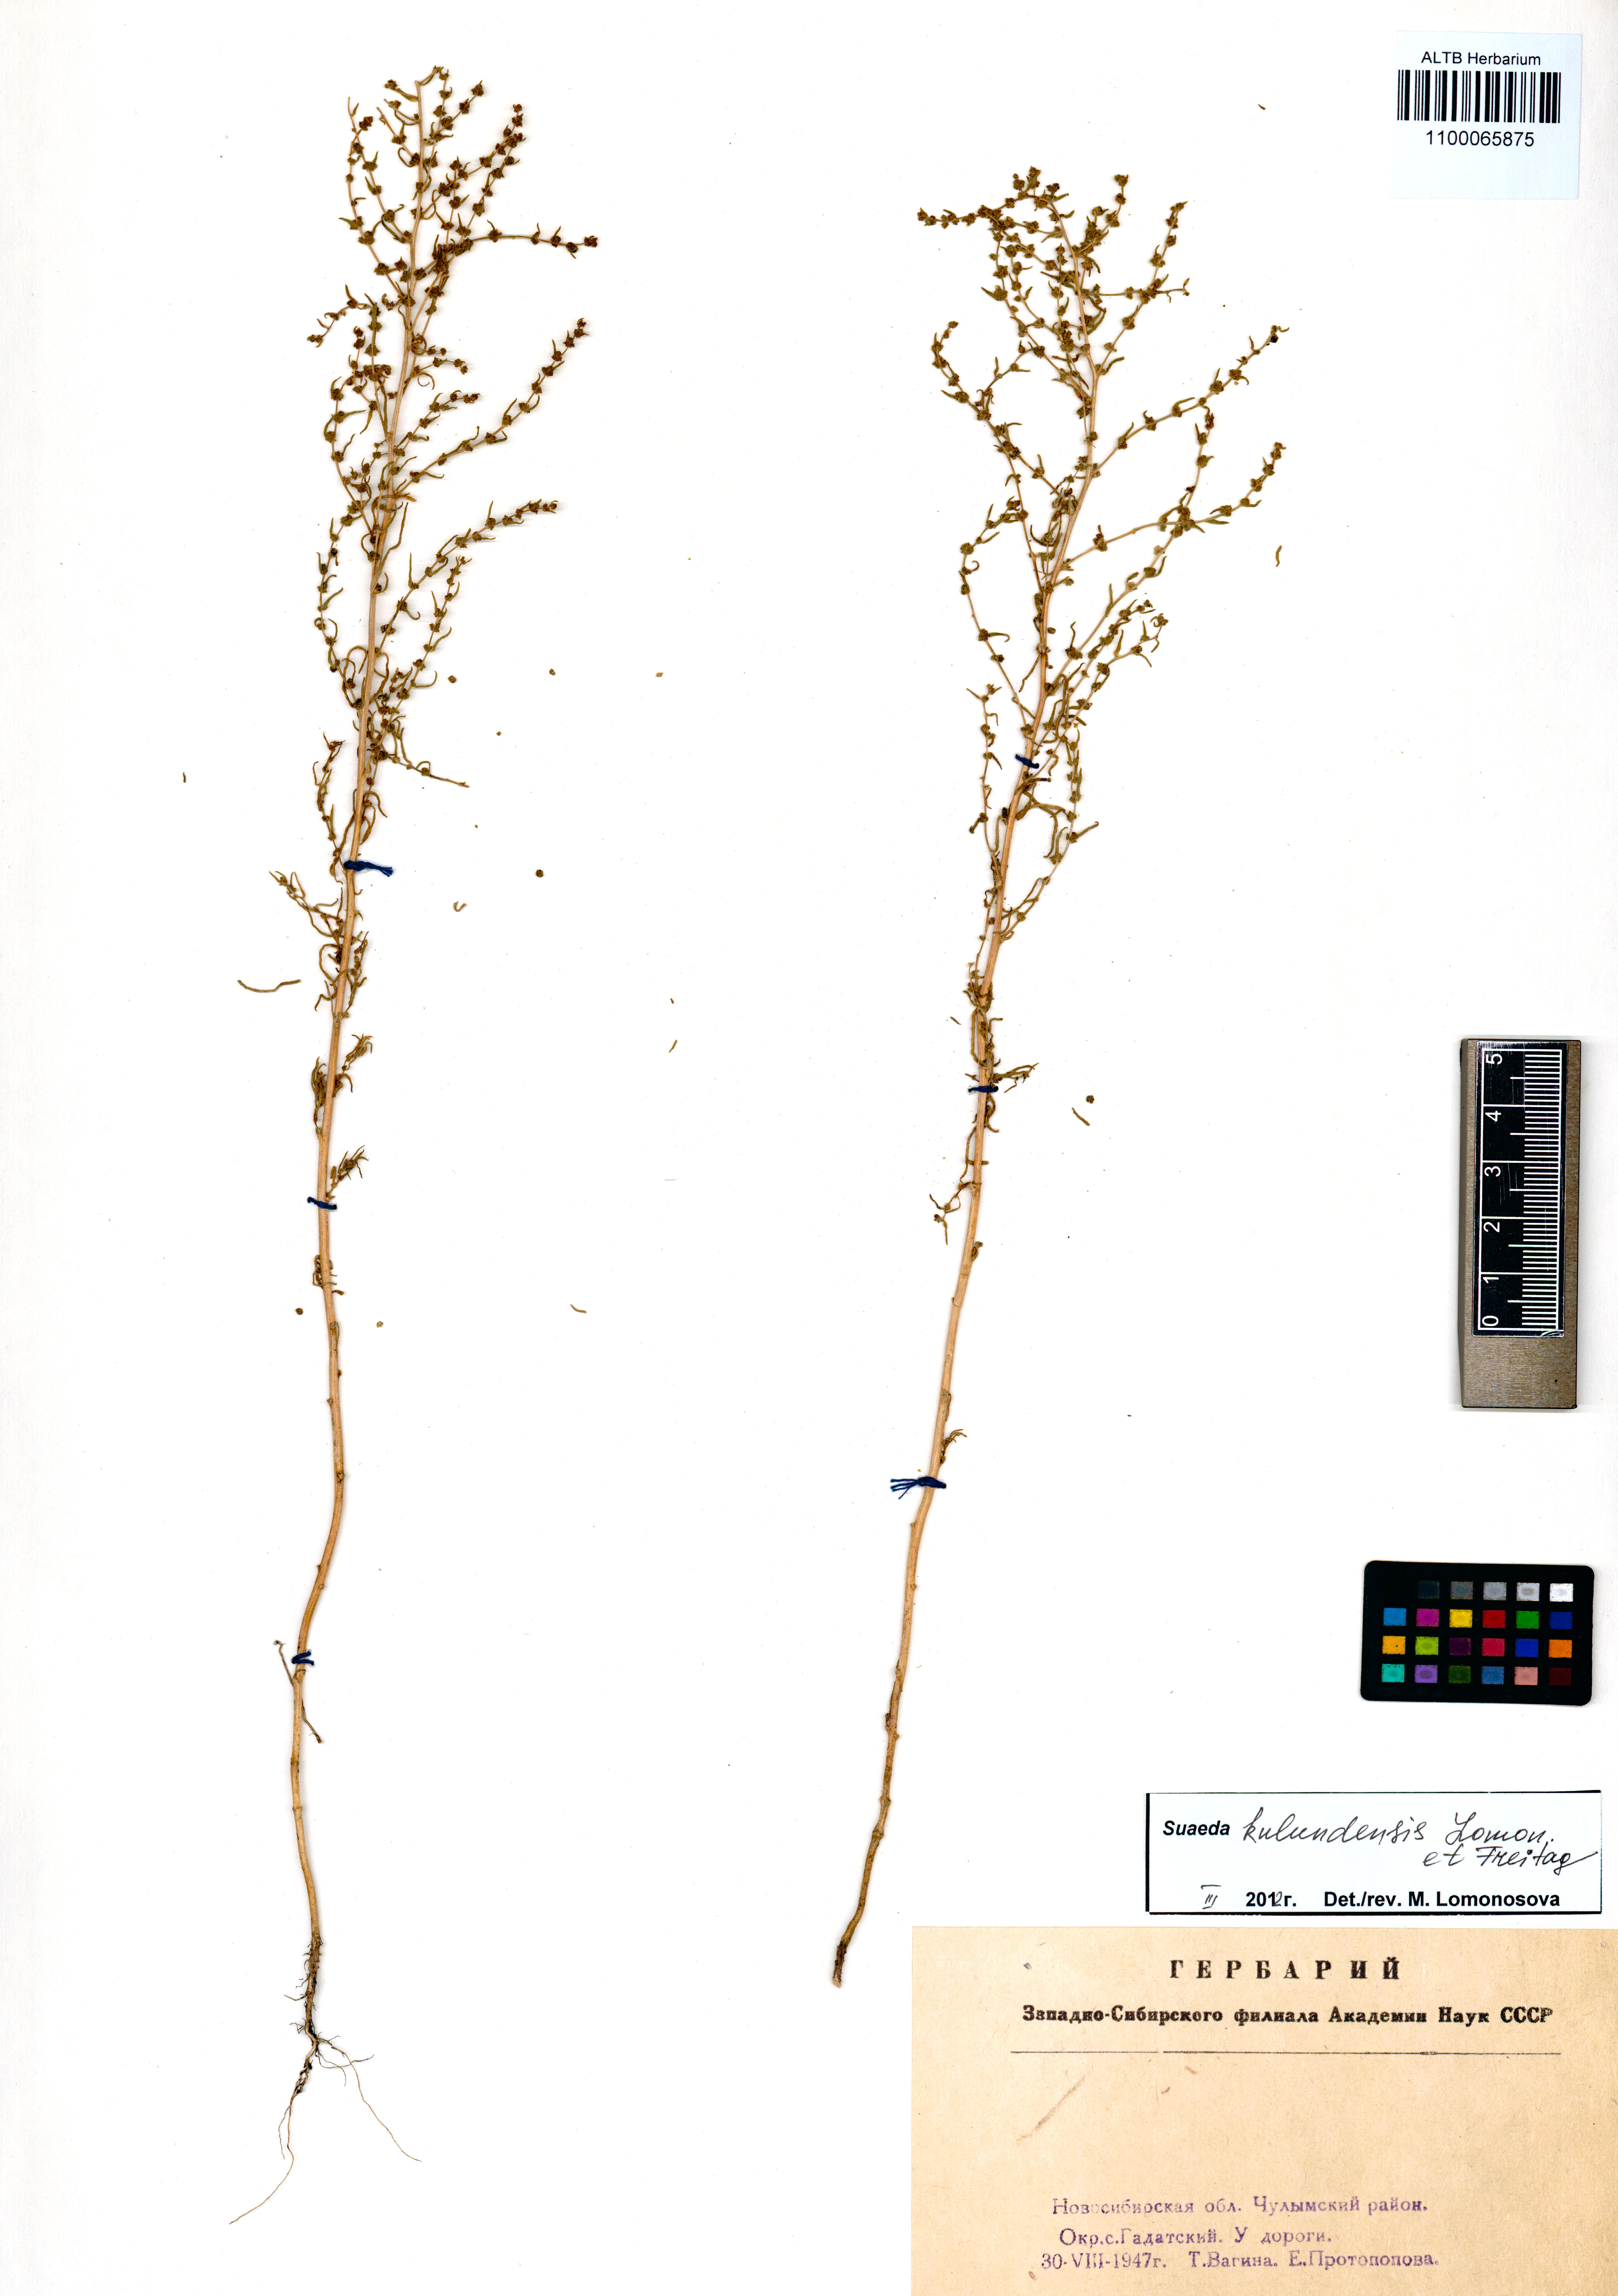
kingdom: Plantae
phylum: Tracheophyta
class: Magnoliopsida
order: Caryophyllales
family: Amaranthaceae
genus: Suaeda
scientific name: Suaeda kulundensis
